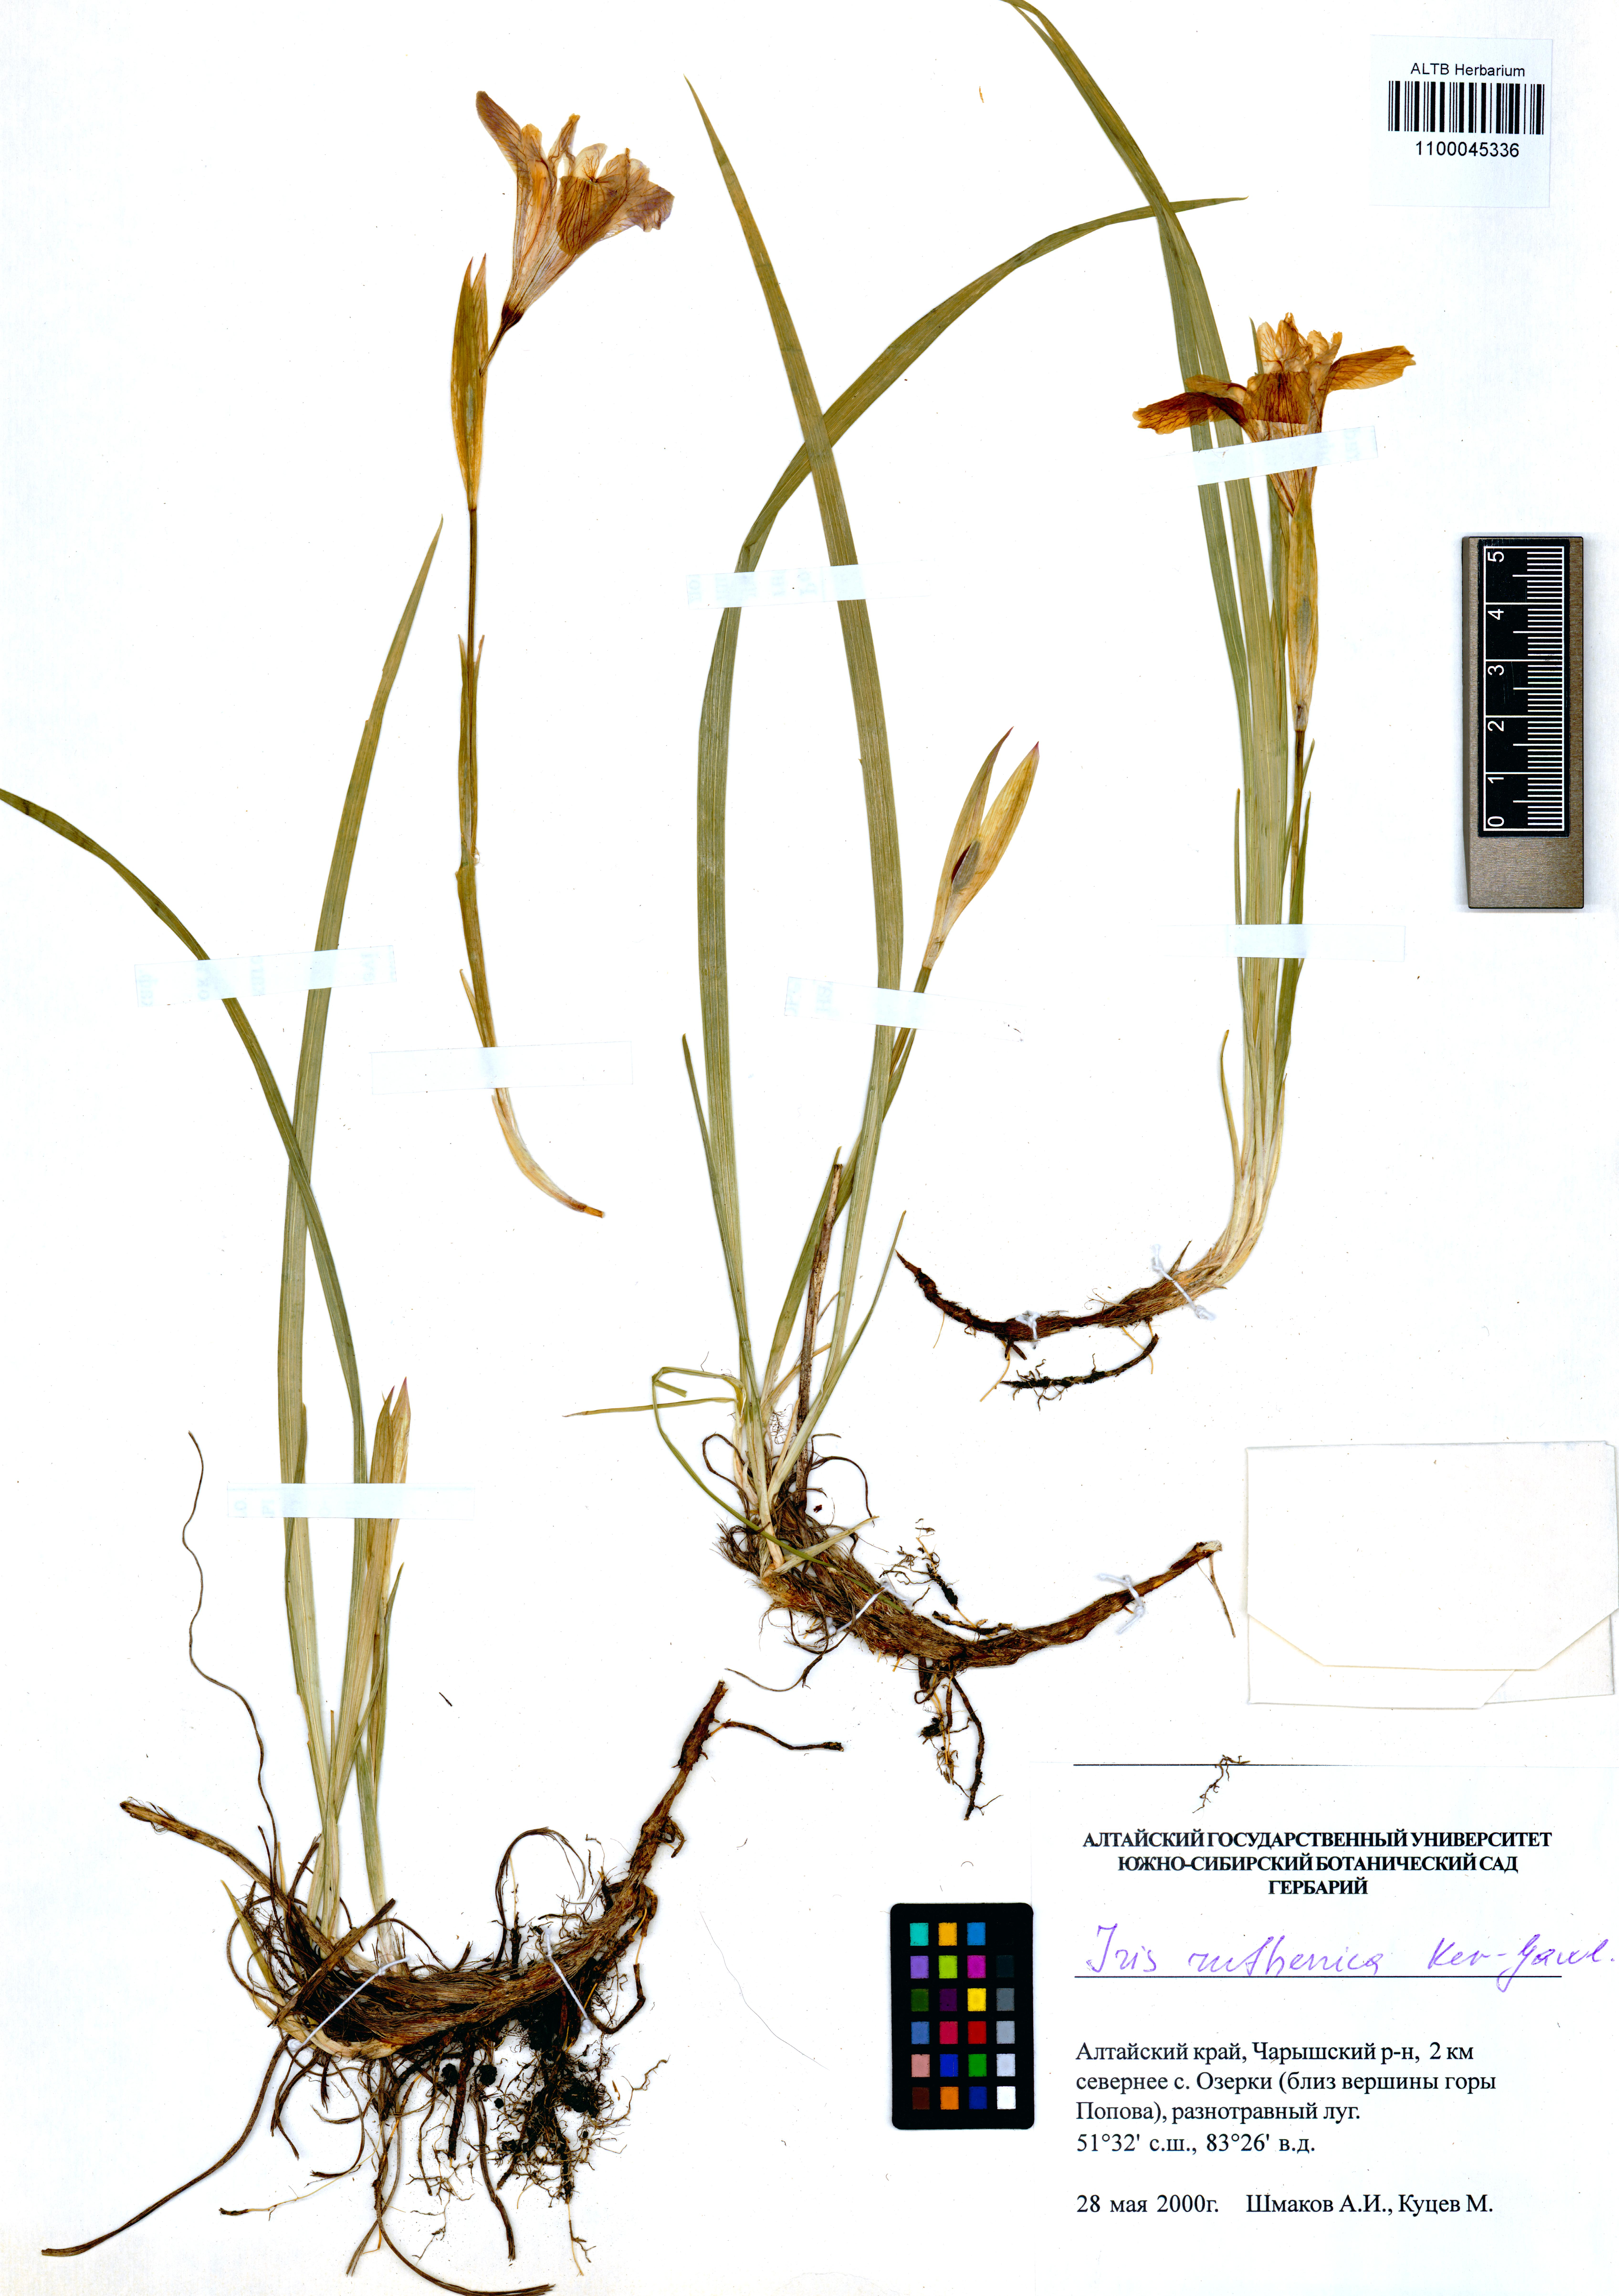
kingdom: Plantae
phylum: Tracheophyta
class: Liliopsida
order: Asparagales
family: Iridaceae
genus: Iris
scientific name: Iris ruthenica
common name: Purple-bract iris
